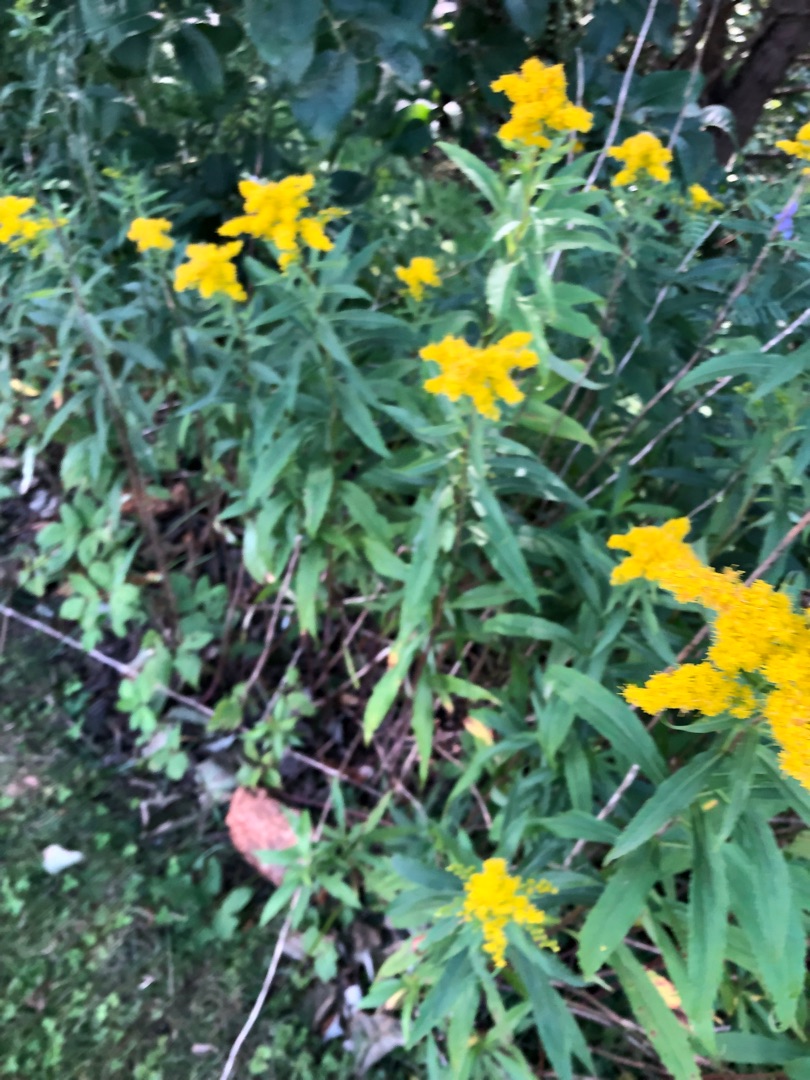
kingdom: Plantae
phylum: Tracheophyta
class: Magnoliopsida
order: Asterales
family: Asteraceae
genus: Solidago
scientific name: Solidago
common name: Gyldenrisslægten
